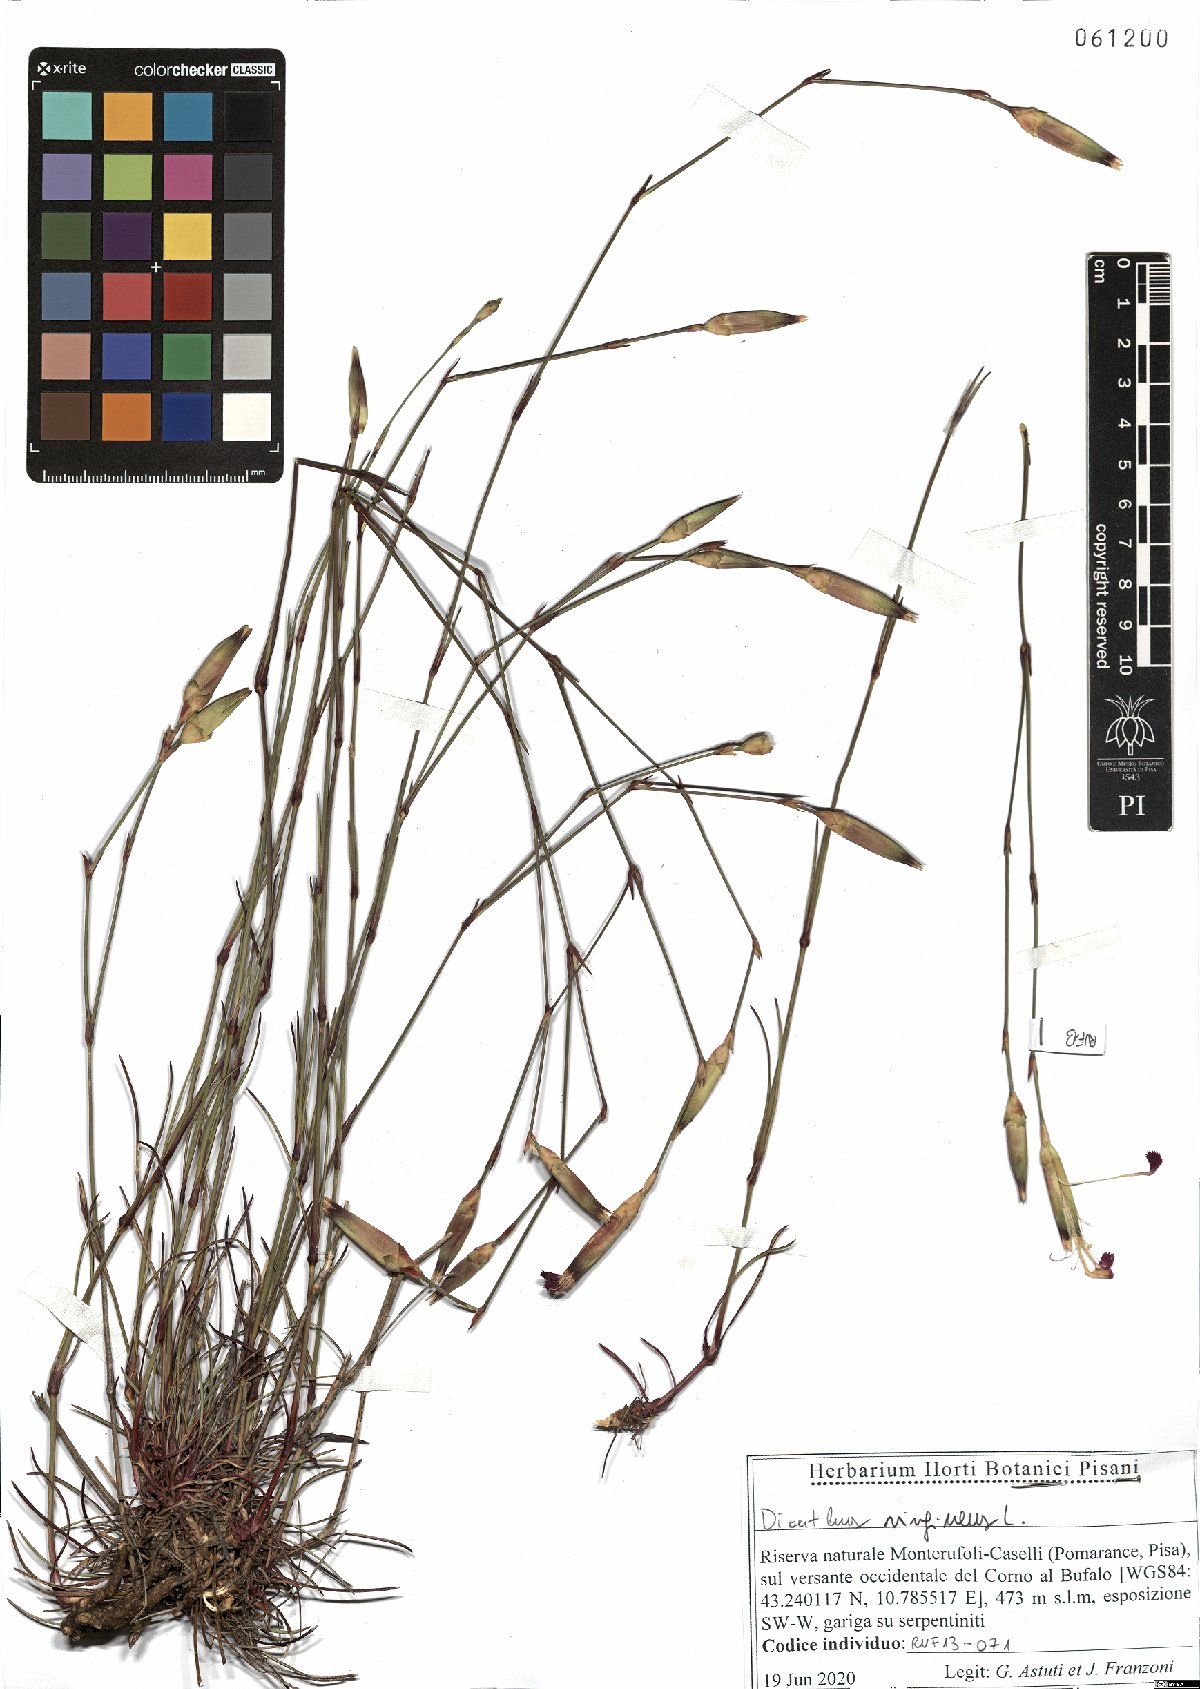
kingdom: Plantae
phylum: Tracheophyta
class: Magnoliopsida
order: Caryophyllales
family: Caryophyllaceae
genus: Dianthus
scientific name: Dianthus virgineus
